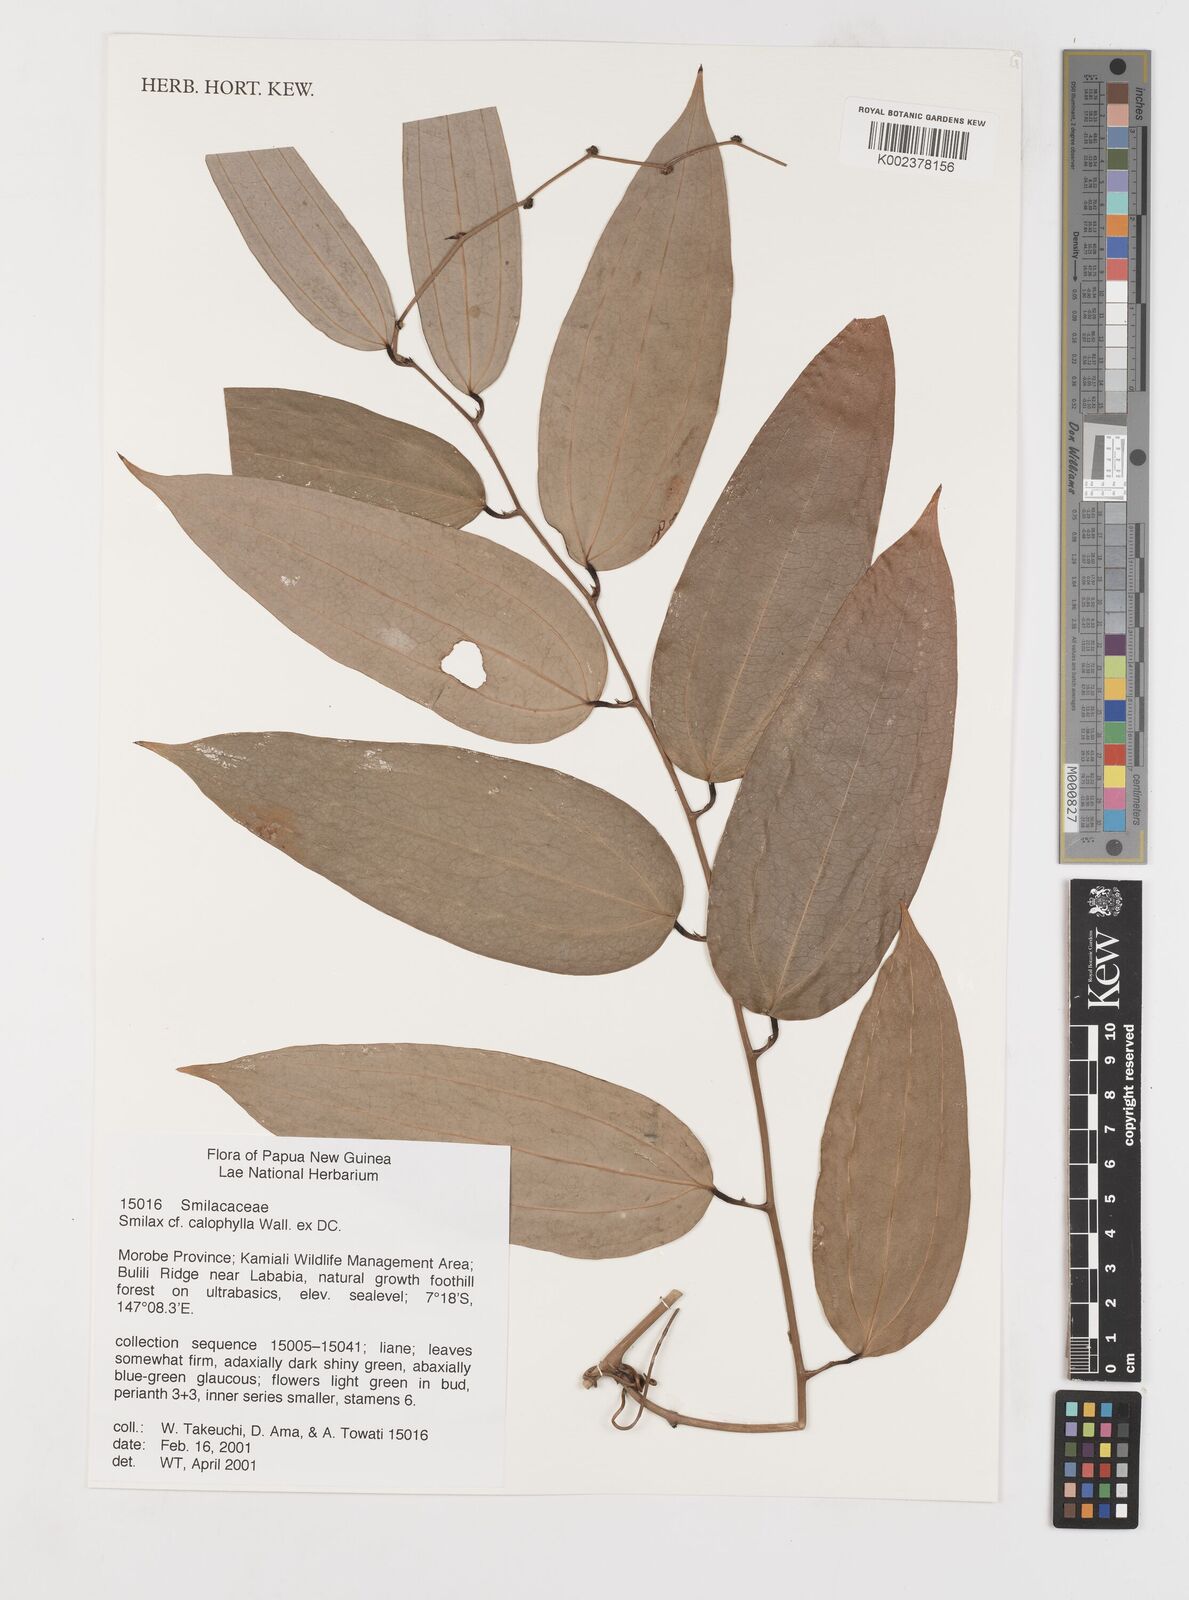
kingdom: Plantae
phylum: Tracheophyta
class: Liliopsida
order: Liliales
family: Smilacaceae
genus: Smilax
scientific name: Smilax calophylla
